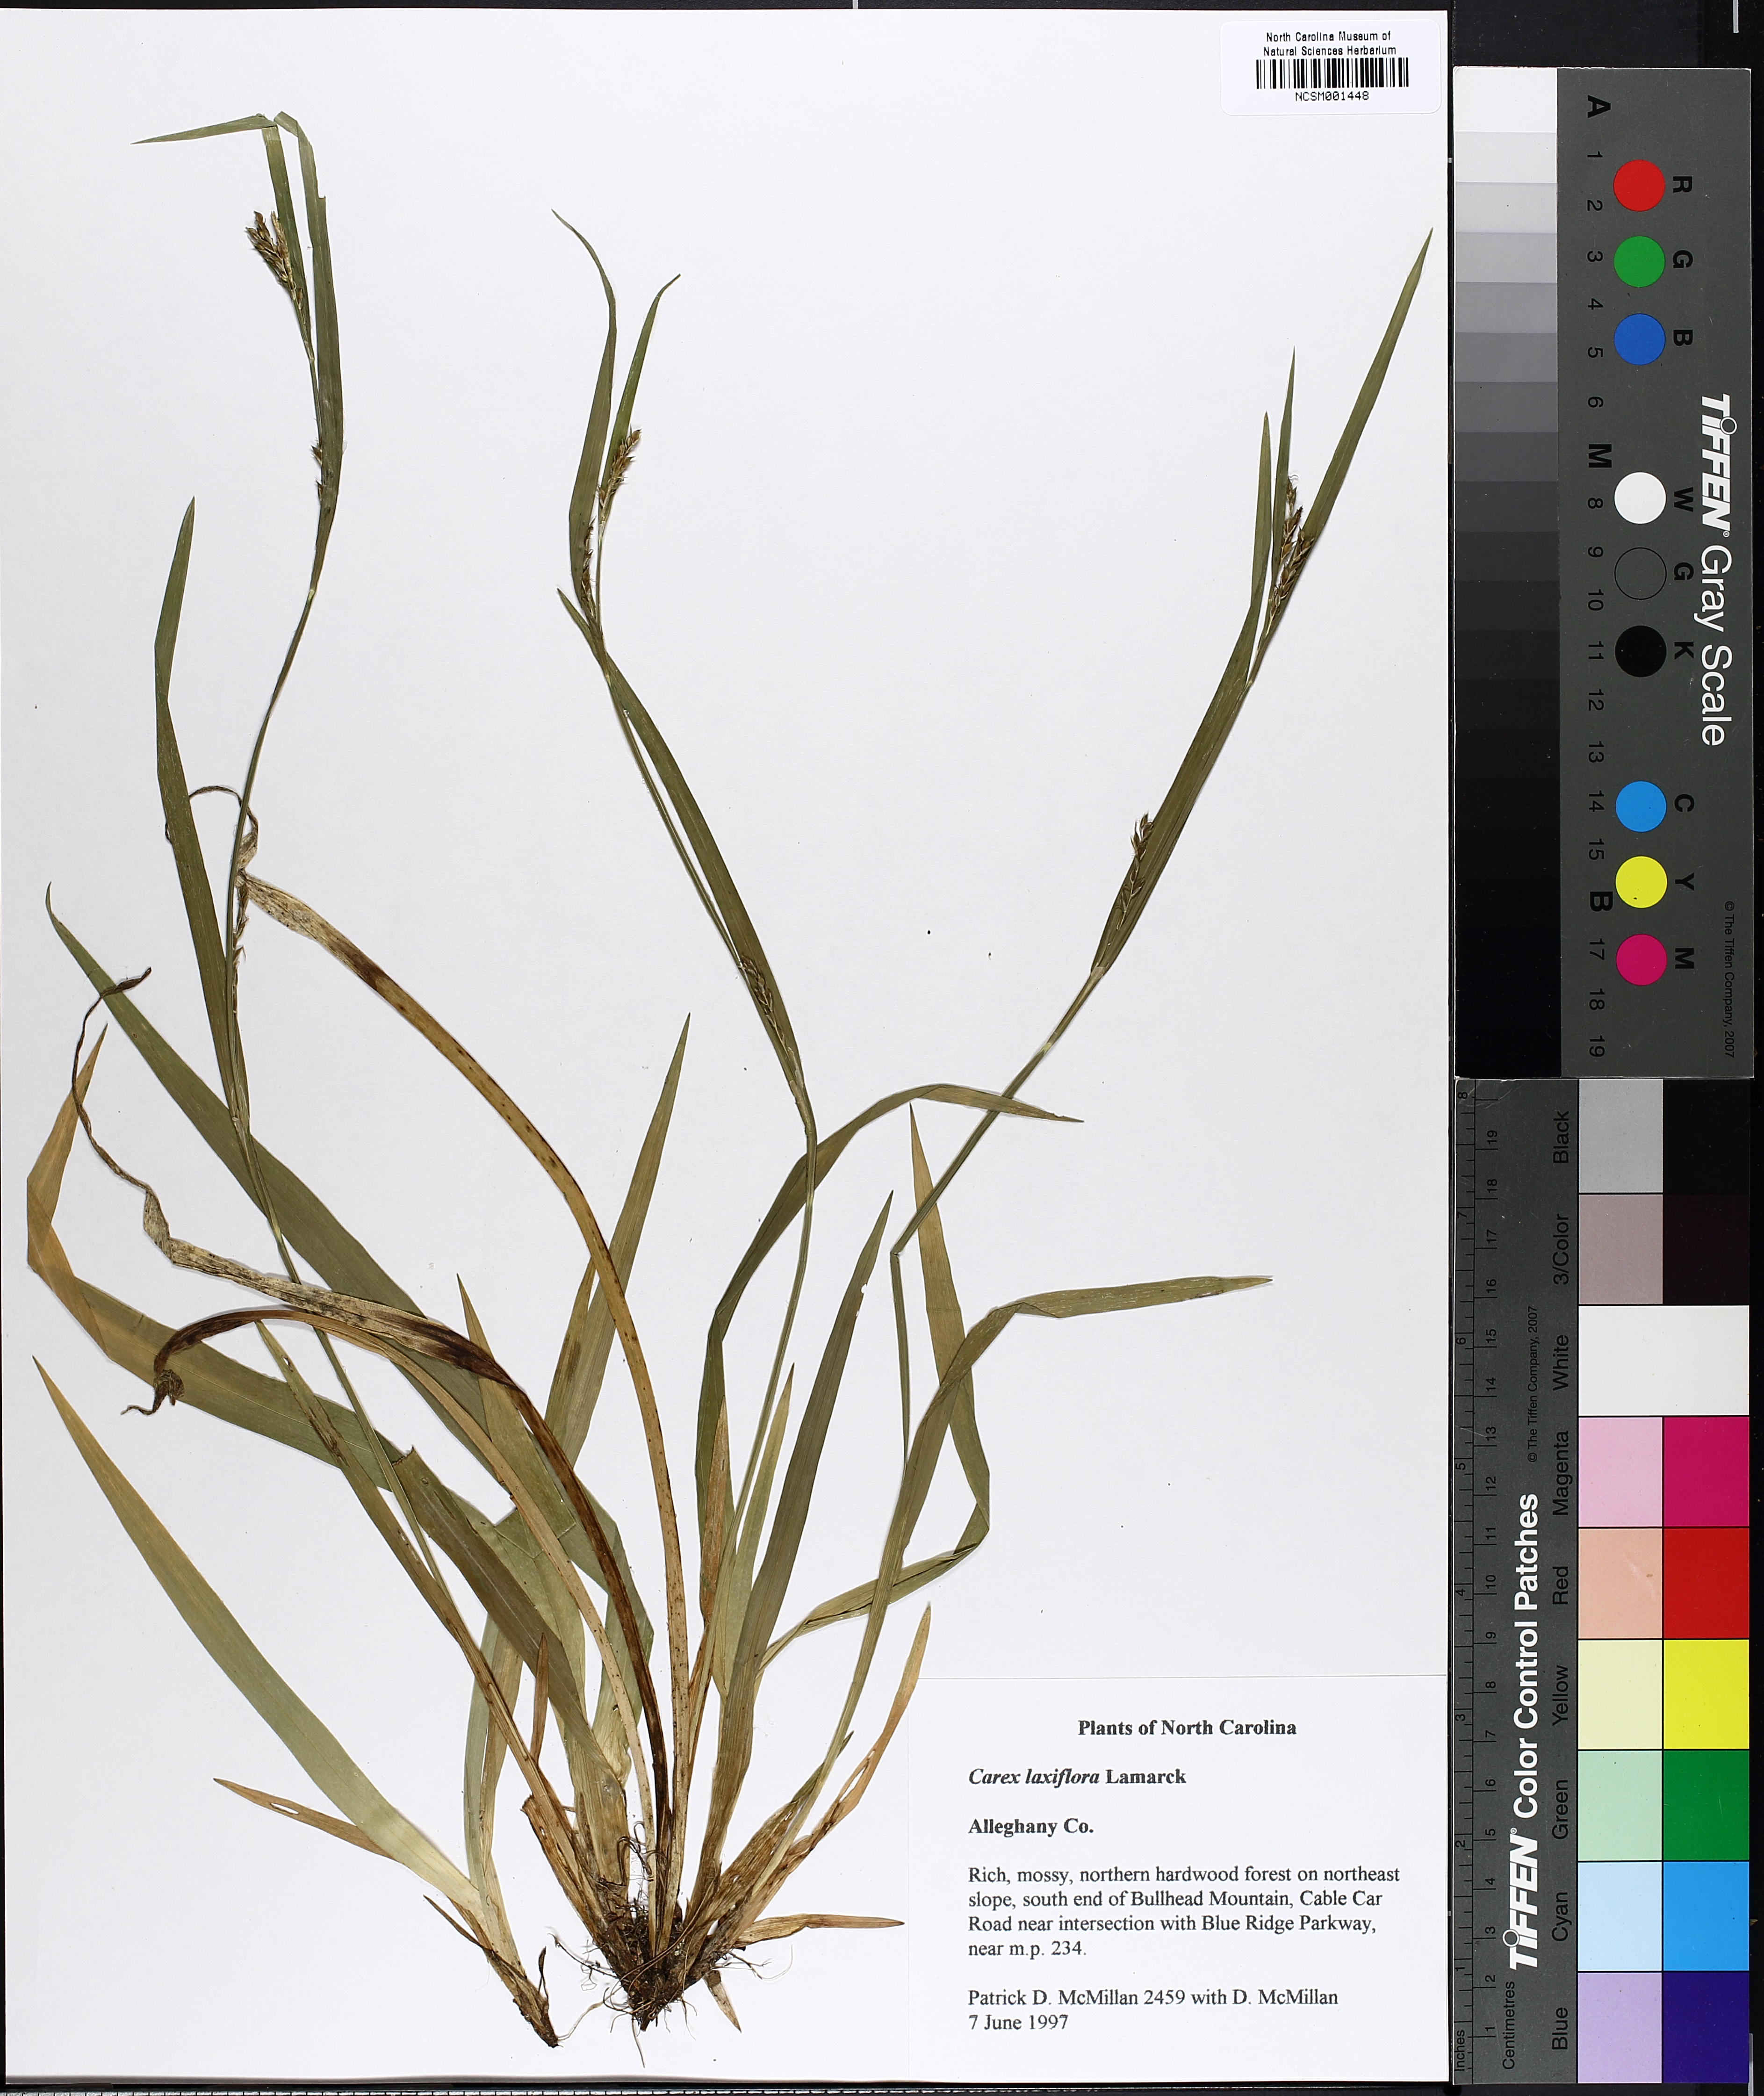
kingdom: Plantae
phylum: Tracheophyta
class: Liliopsida
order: Poales
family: Cyperaceae
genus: Carex
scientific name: Carex laxiflora
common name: Beech wood sedge
